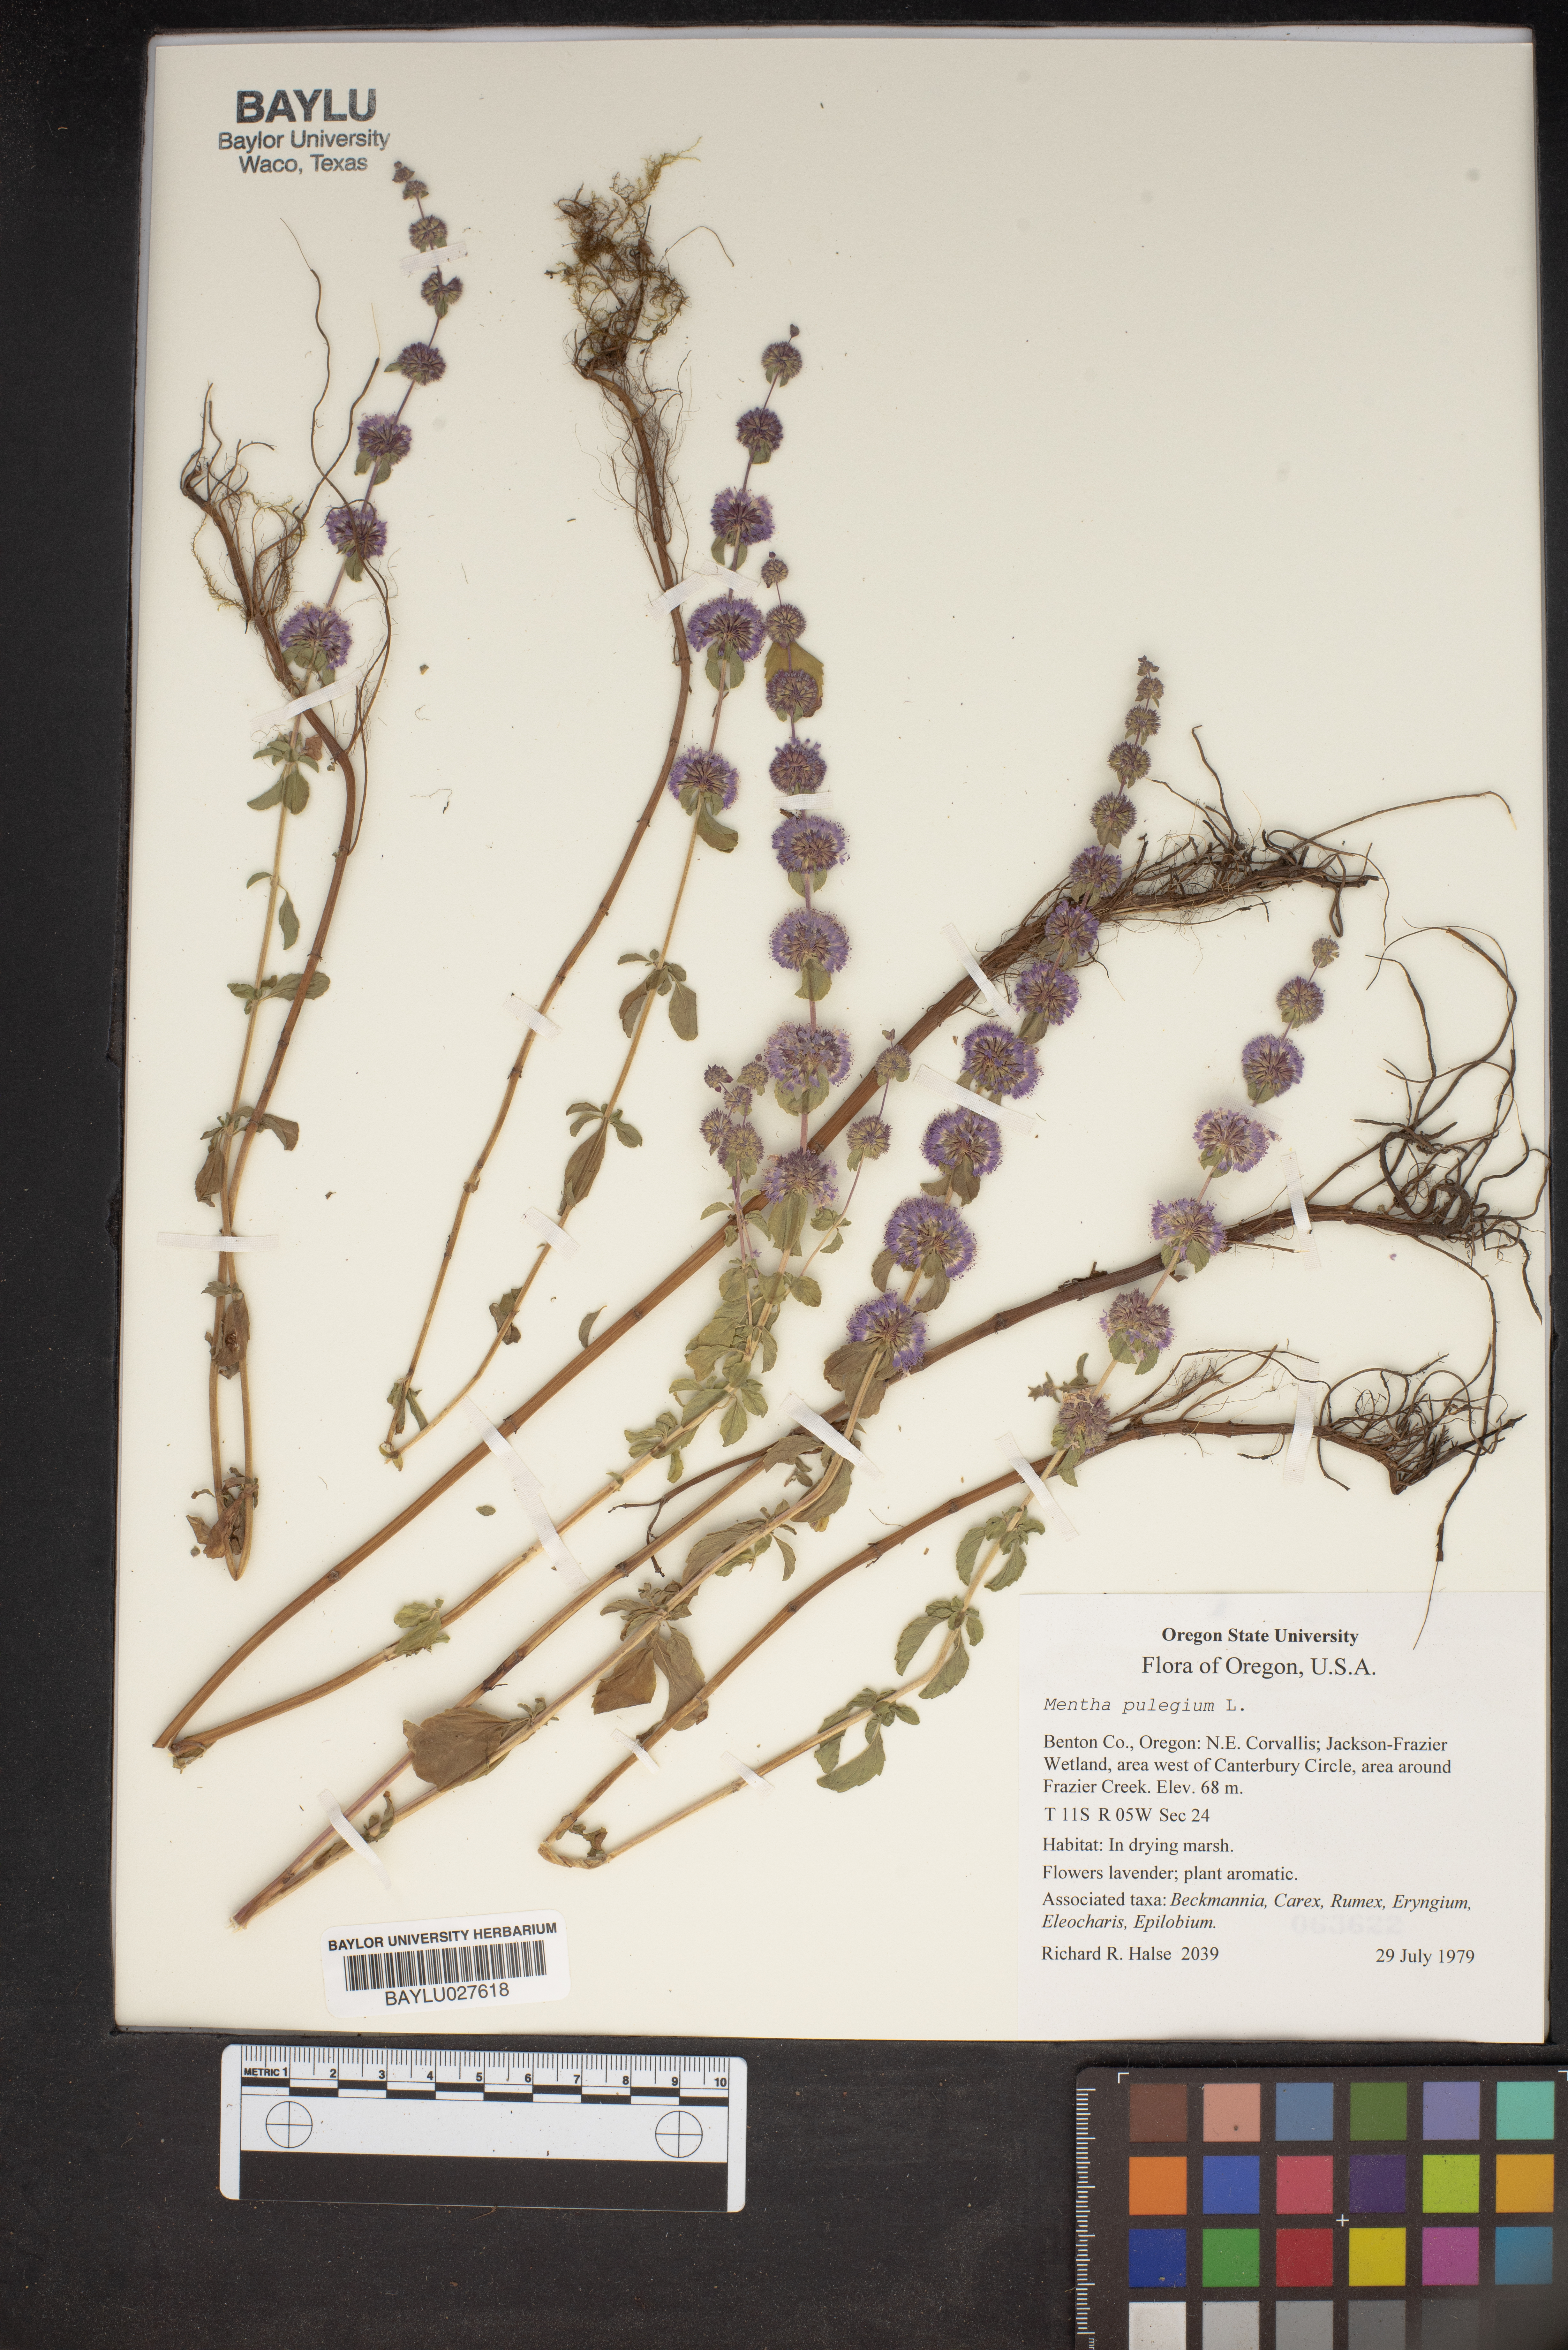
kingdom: Plantae
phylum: Tracheophyta
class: Magnoliopsida
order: Lamiales
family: Lamiaceae
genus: Mentha
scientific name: Mentha pulegium
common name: Pennyroyal
